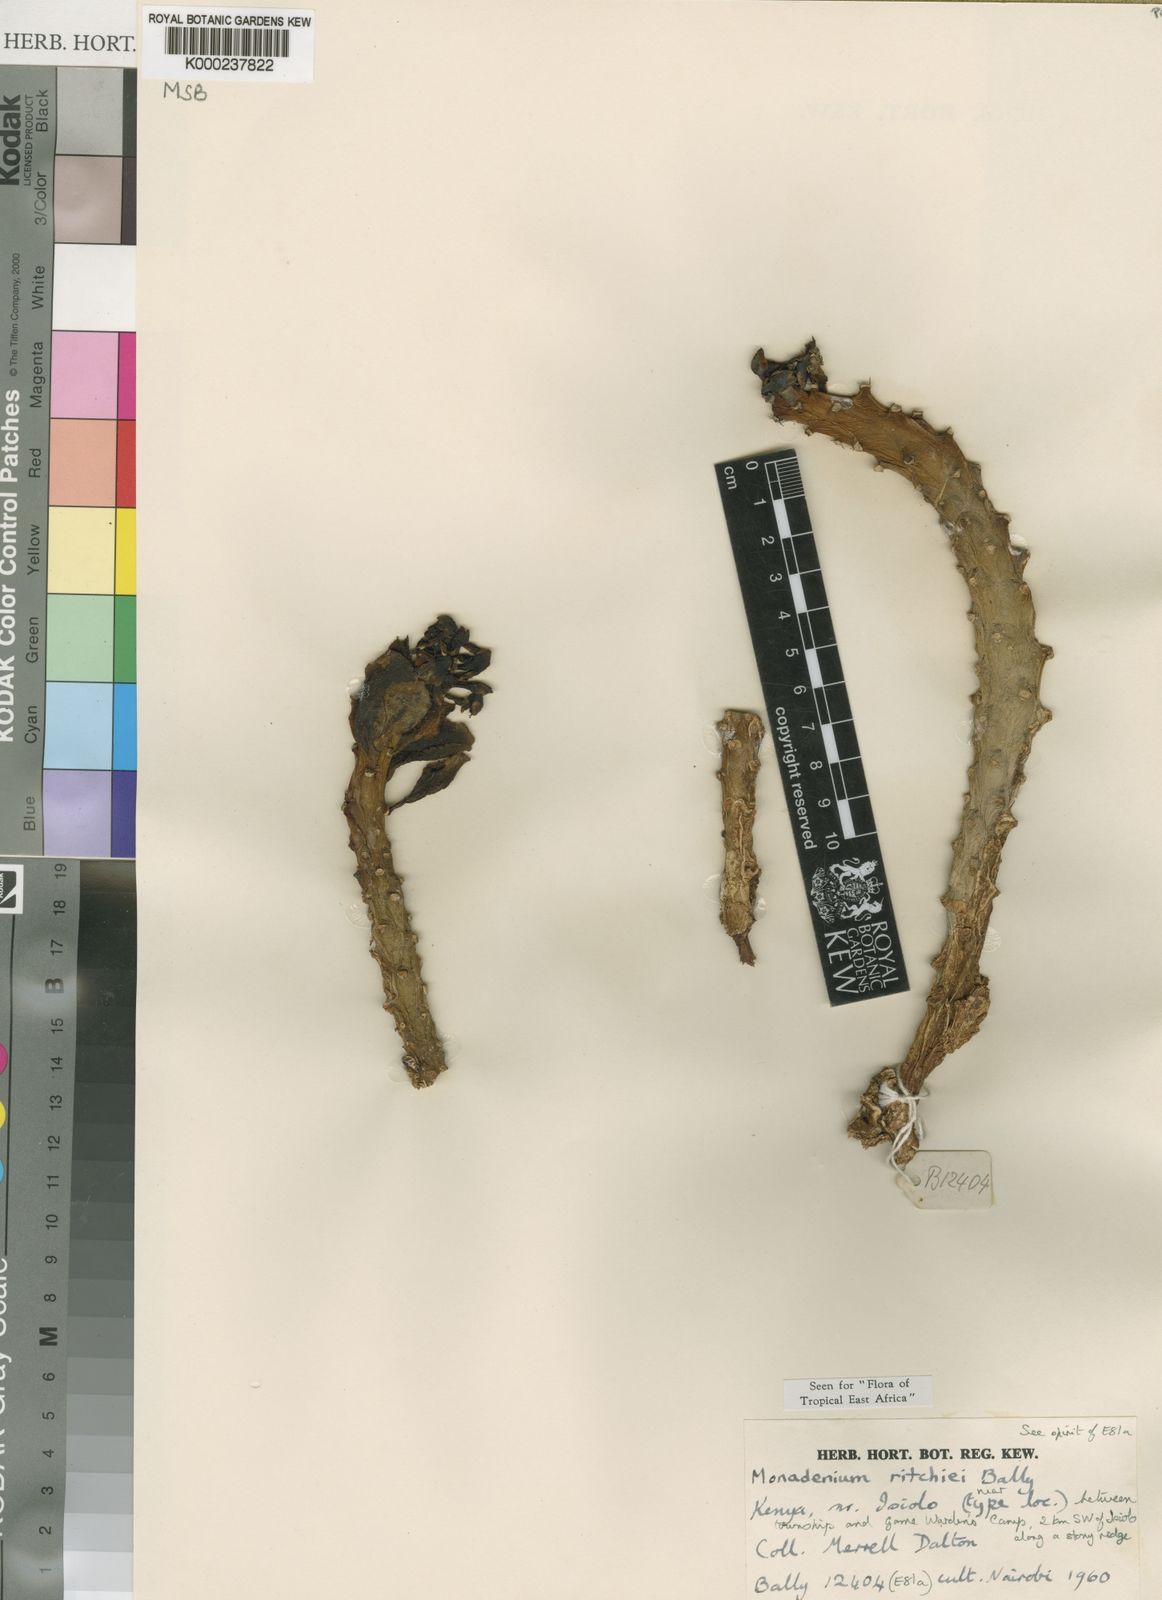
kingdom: Plantae
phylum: Tracheophyta
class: Magnoliopsida
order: Malpighiales
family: Euphorbiaceae
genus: Euphorbia
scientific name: Euphorbia ritchiei
